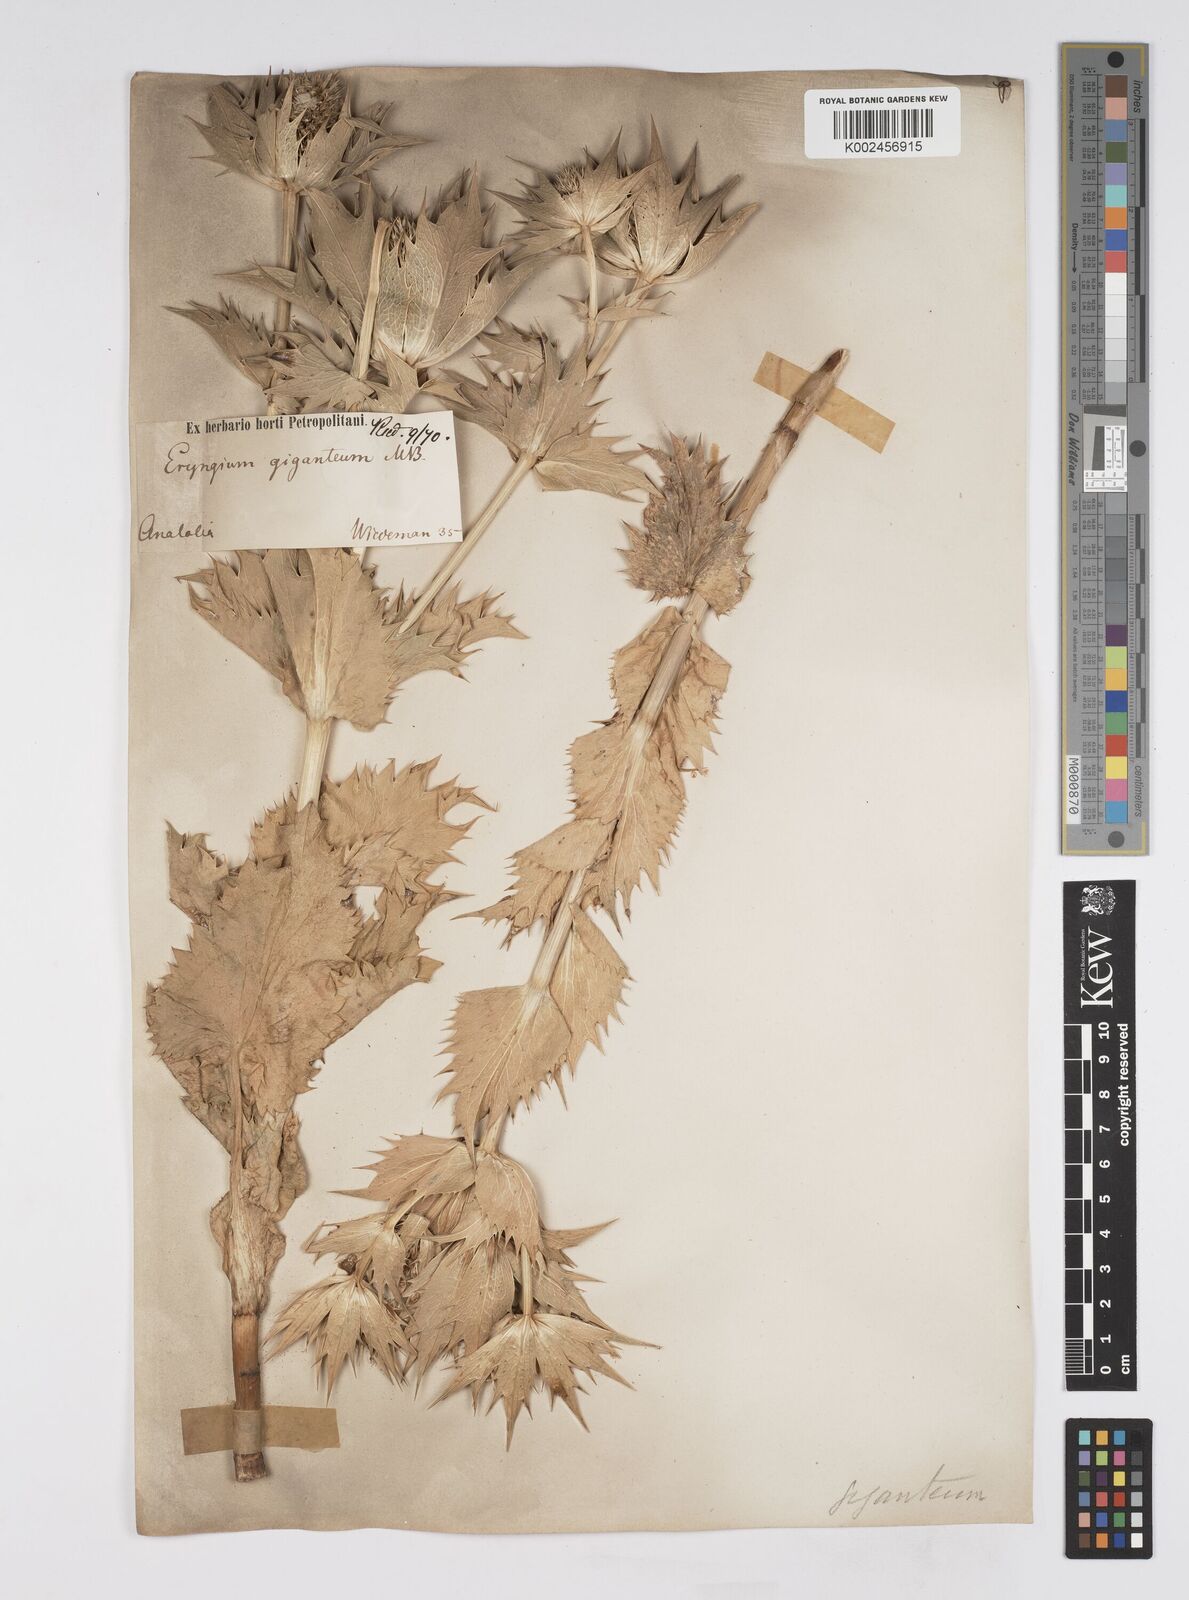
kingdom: Plantae
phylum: Tracheophyta
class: Magnoliopsida
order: Apiales
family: Apiaceae
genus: Eryngium
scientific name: Eryngium giganteum
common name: Tall eryngo
